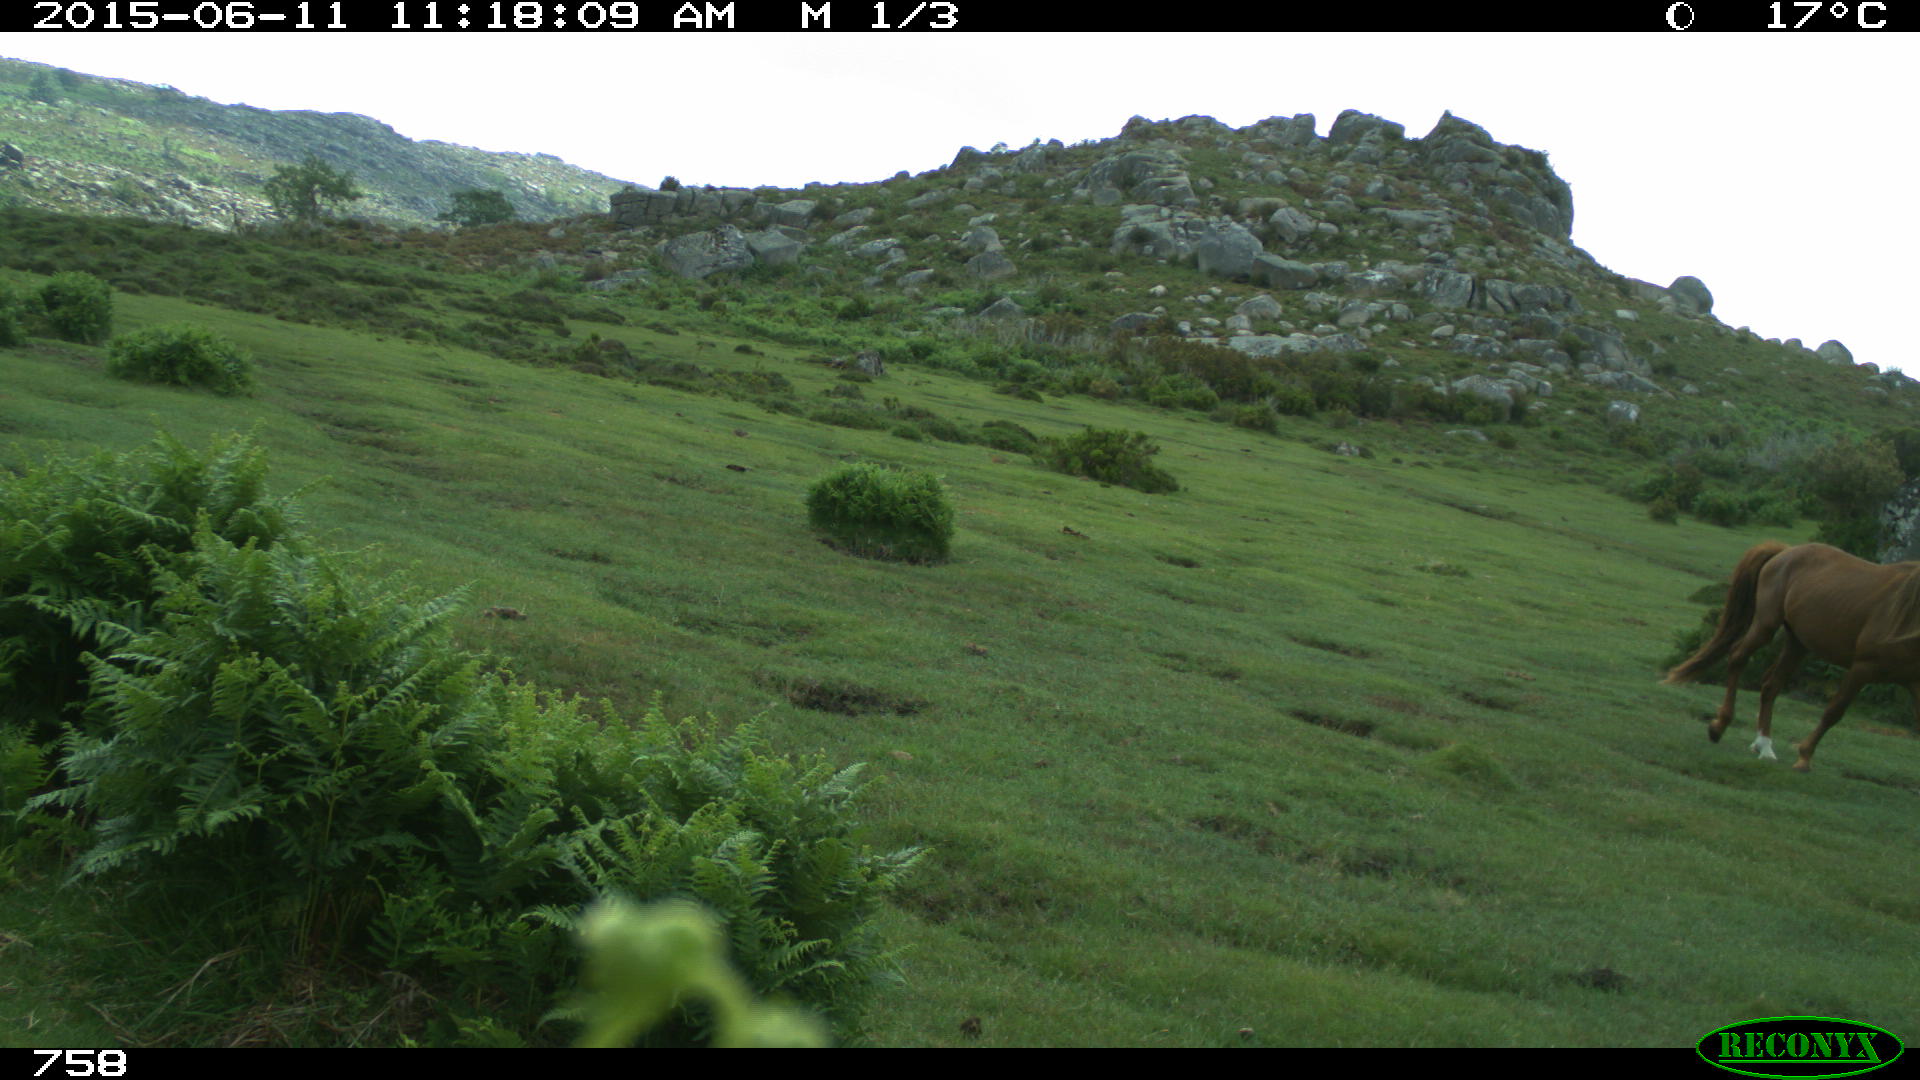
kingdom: Animalia
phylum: Chordata
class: Mammalia
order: Perissodactyla
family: Equidae
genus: Equus
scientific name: Equus caballus
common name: Horse
